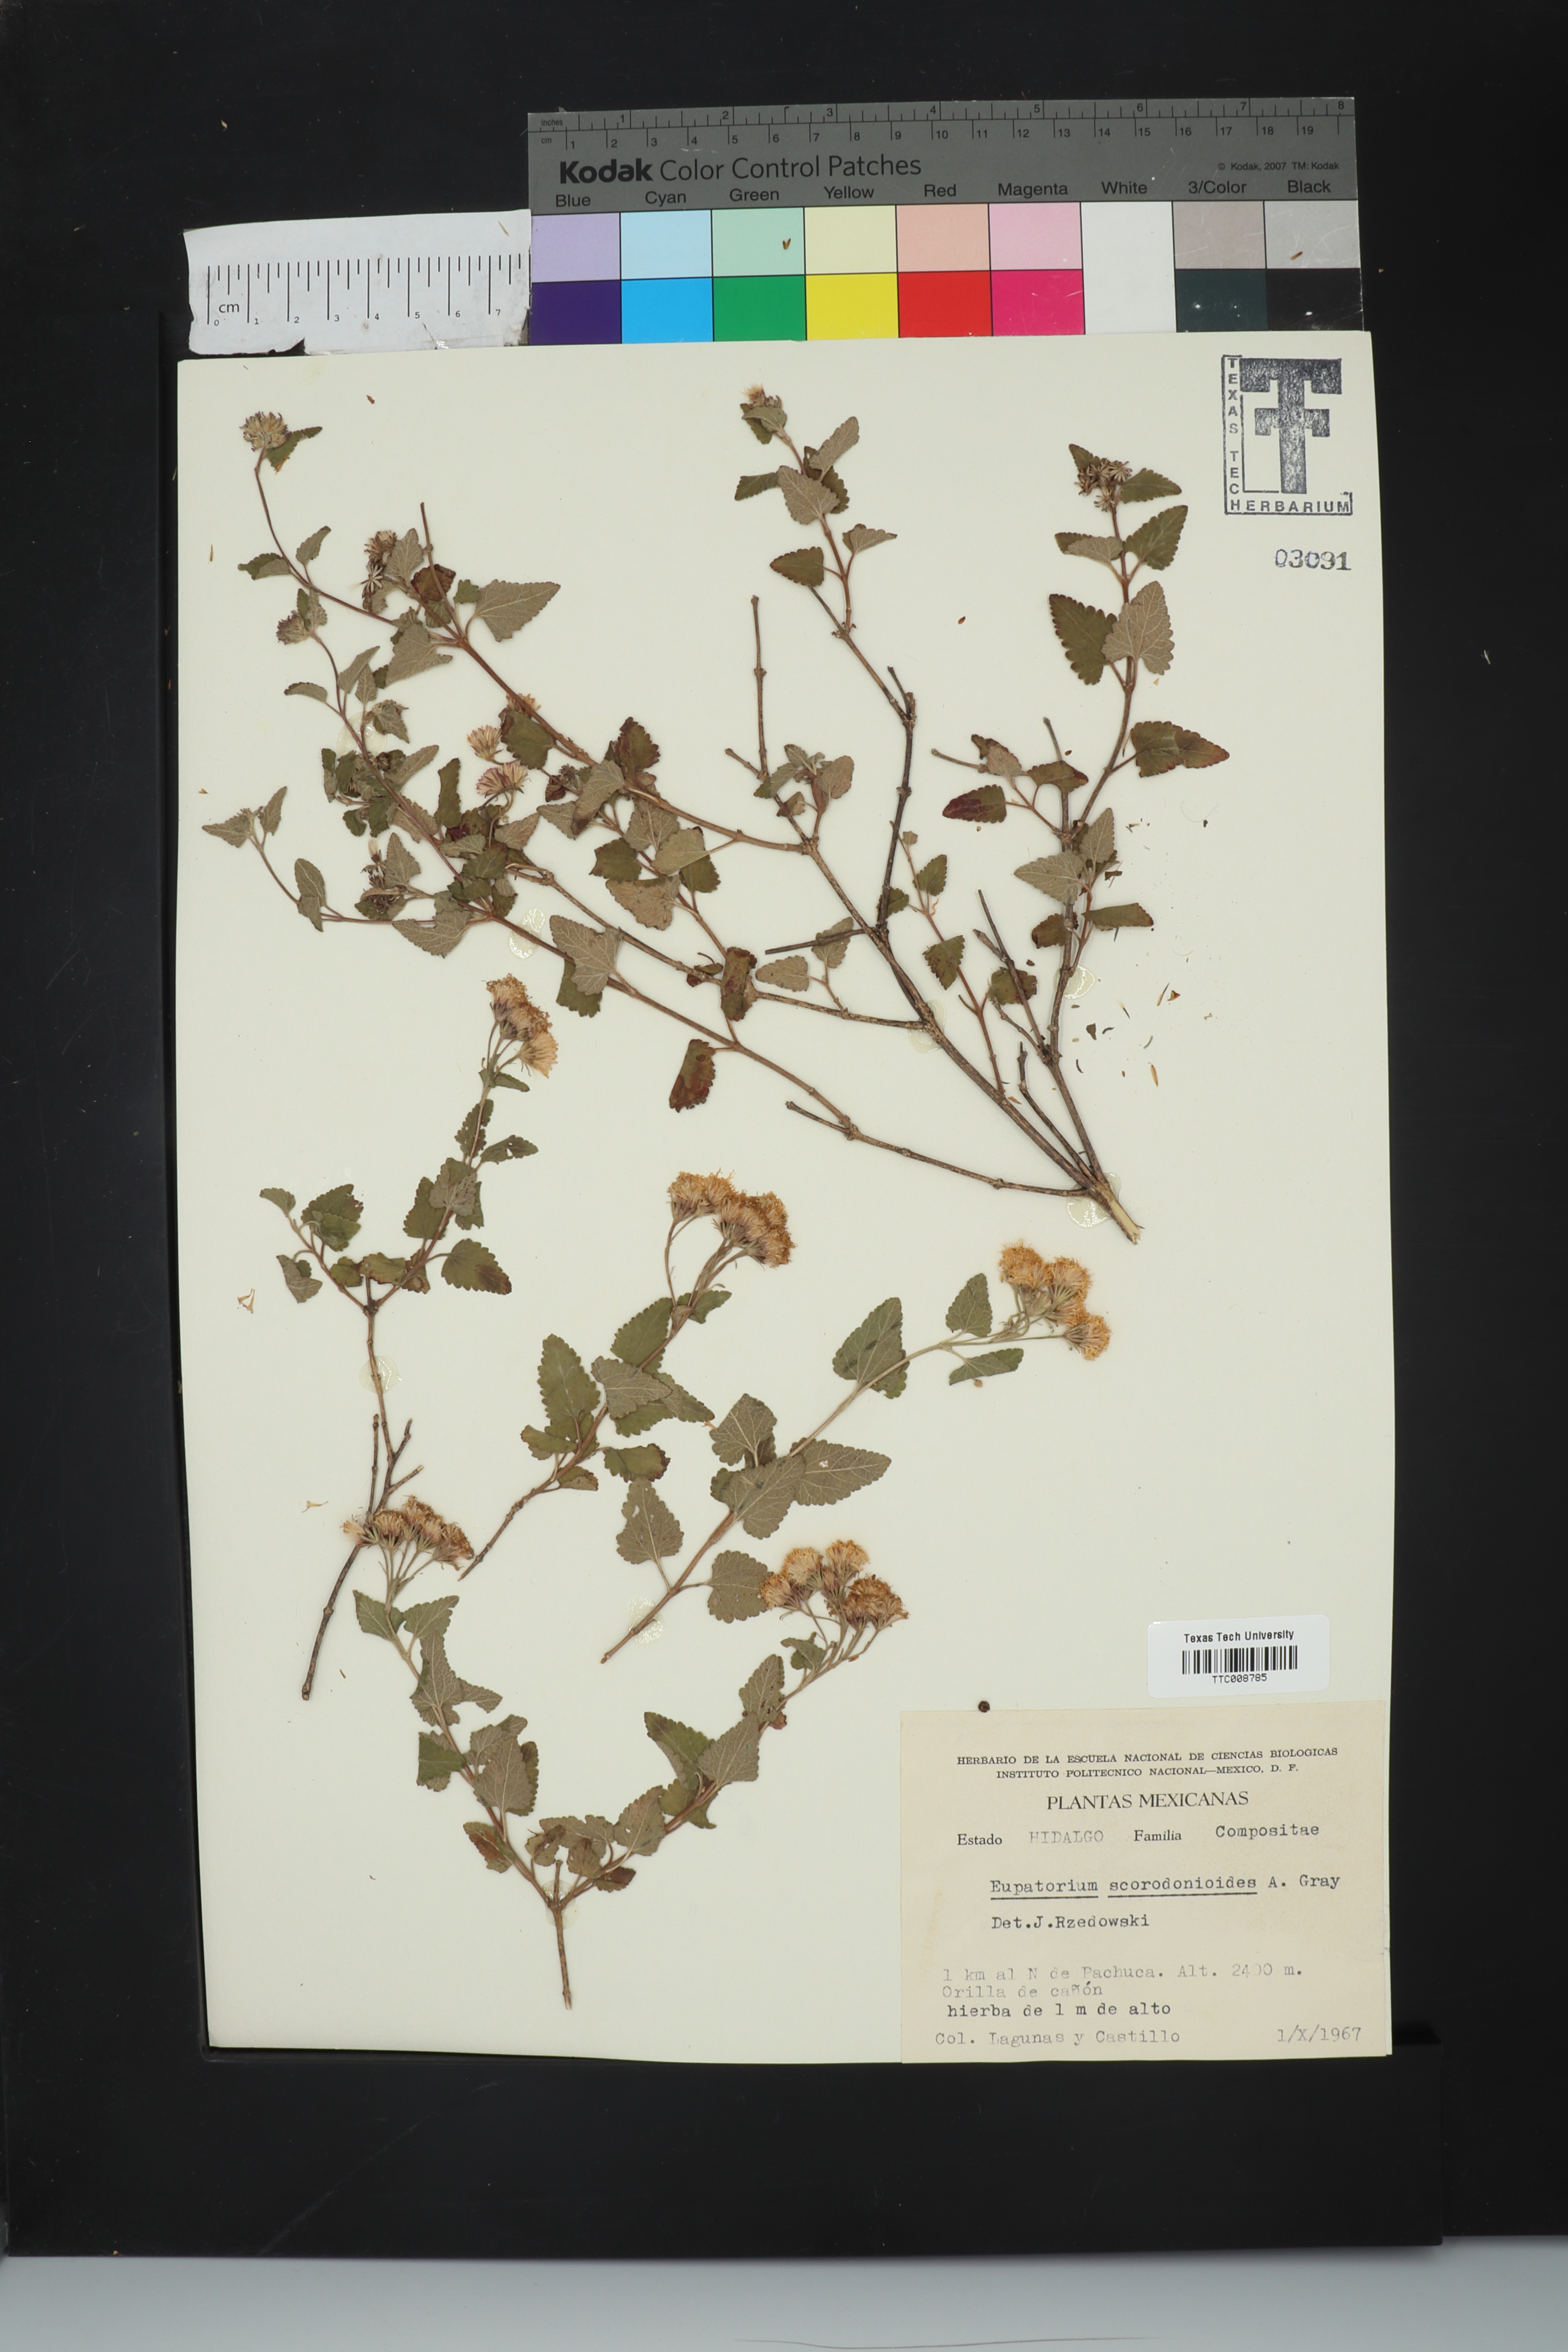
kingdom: Plantae
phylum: Tracheophyta
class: Magnoliopsida
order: Asterales
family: Asteraceae
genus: Ageratina
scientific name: Ageratina scorodonioides
